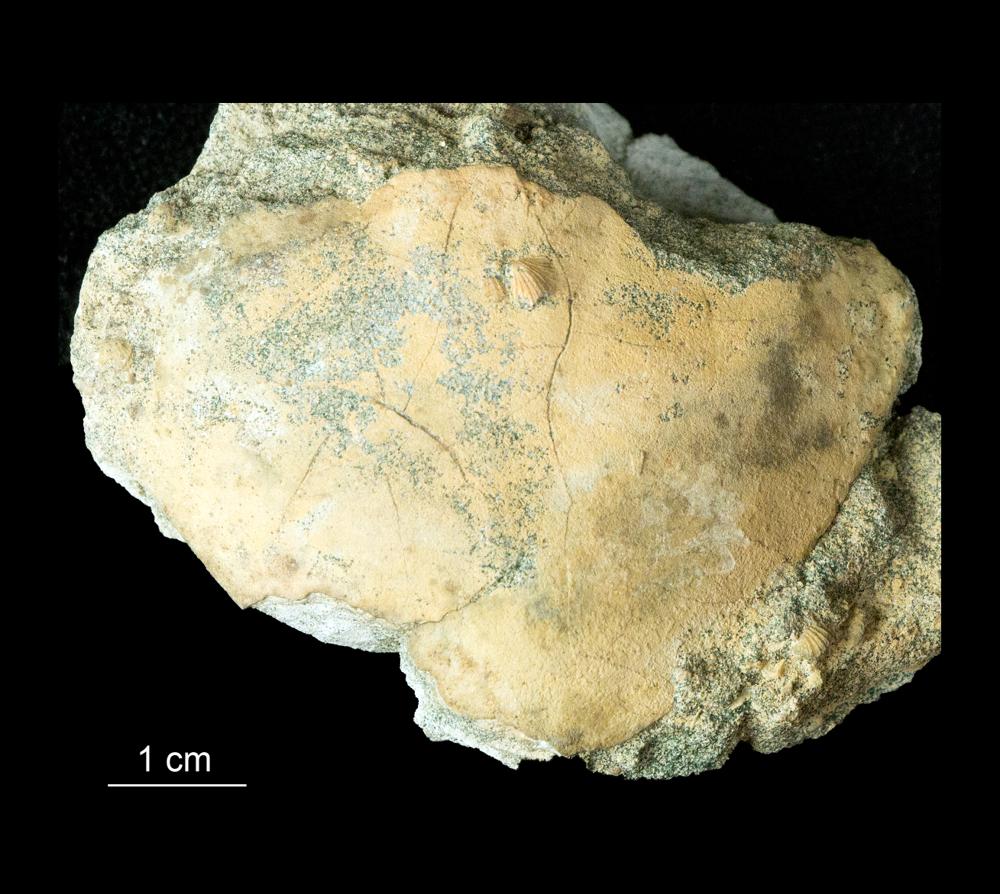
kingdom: Animalia
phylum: Arthropoda
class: Trilobita
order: Asaphida
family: Asaphidae
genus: Megalaspides
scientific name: Megalaspides
